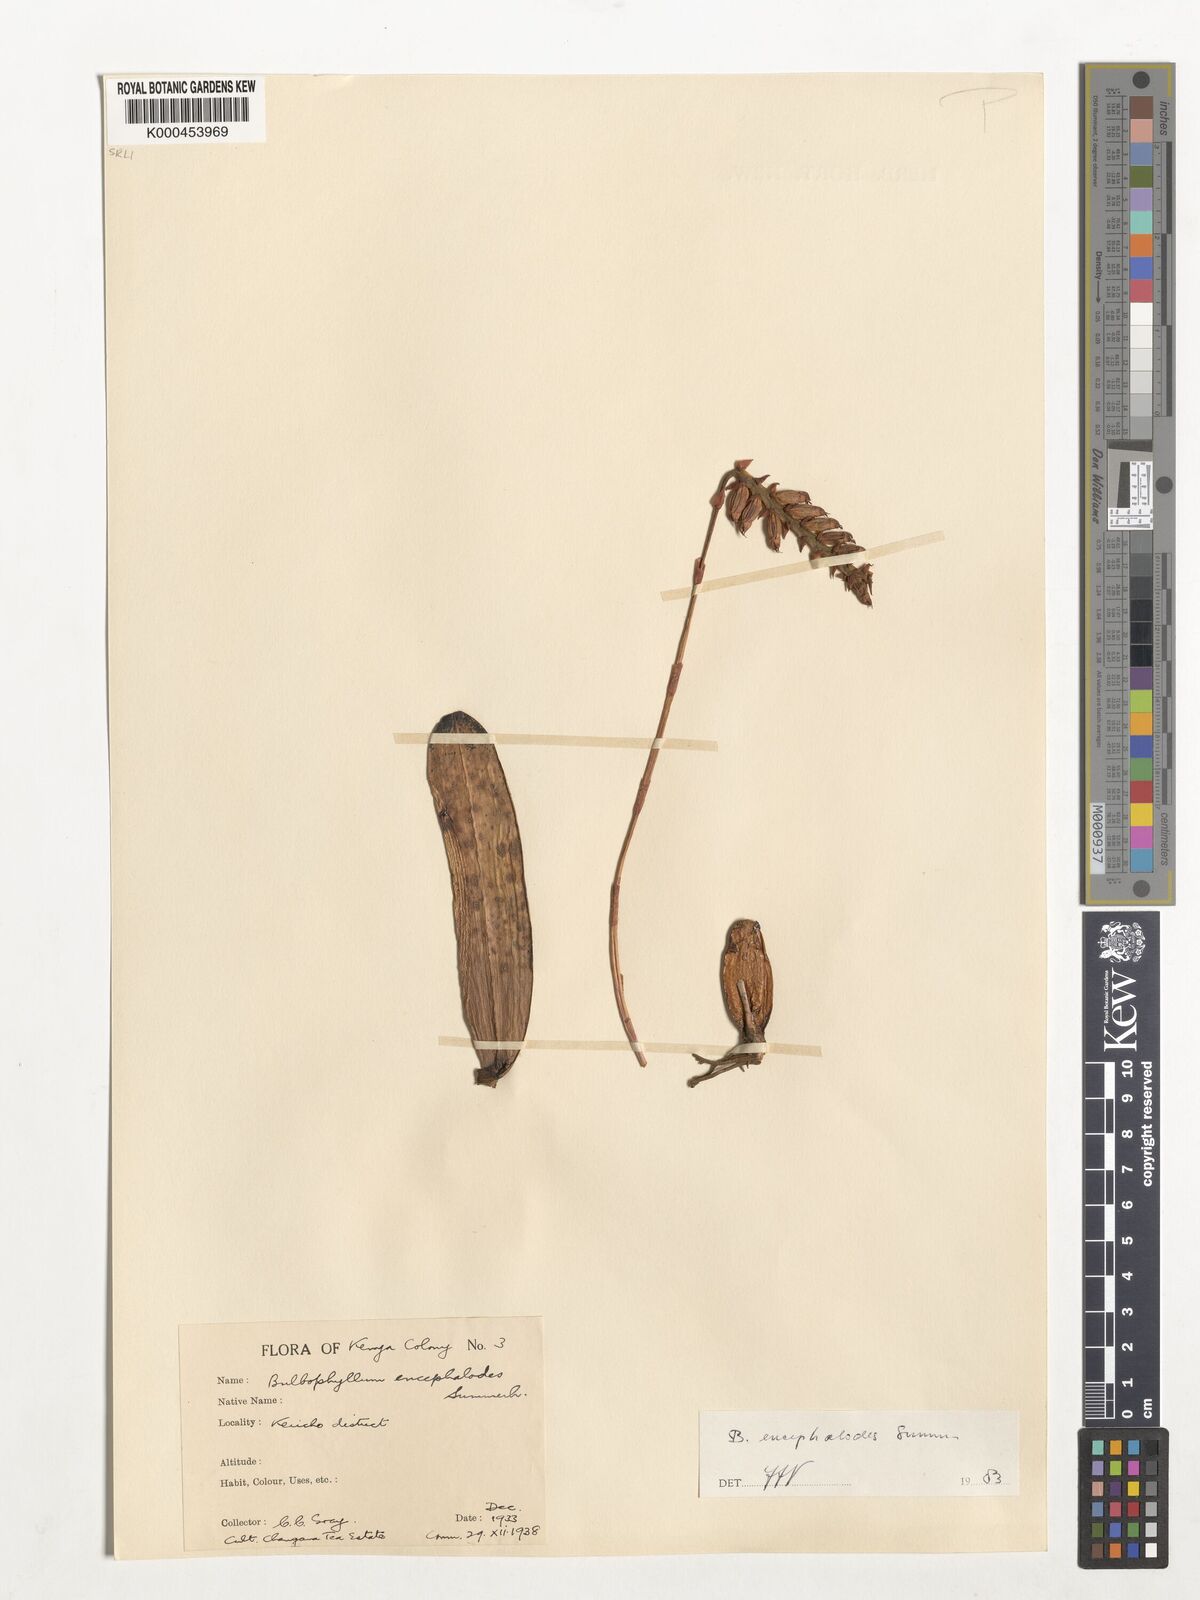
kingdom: Plantae
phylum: Tracheophyta
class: Liliopsida
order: Asparagales
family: Orchidaceae
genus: Bulbophyllum
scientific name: Bulbophyllum encephalodes
